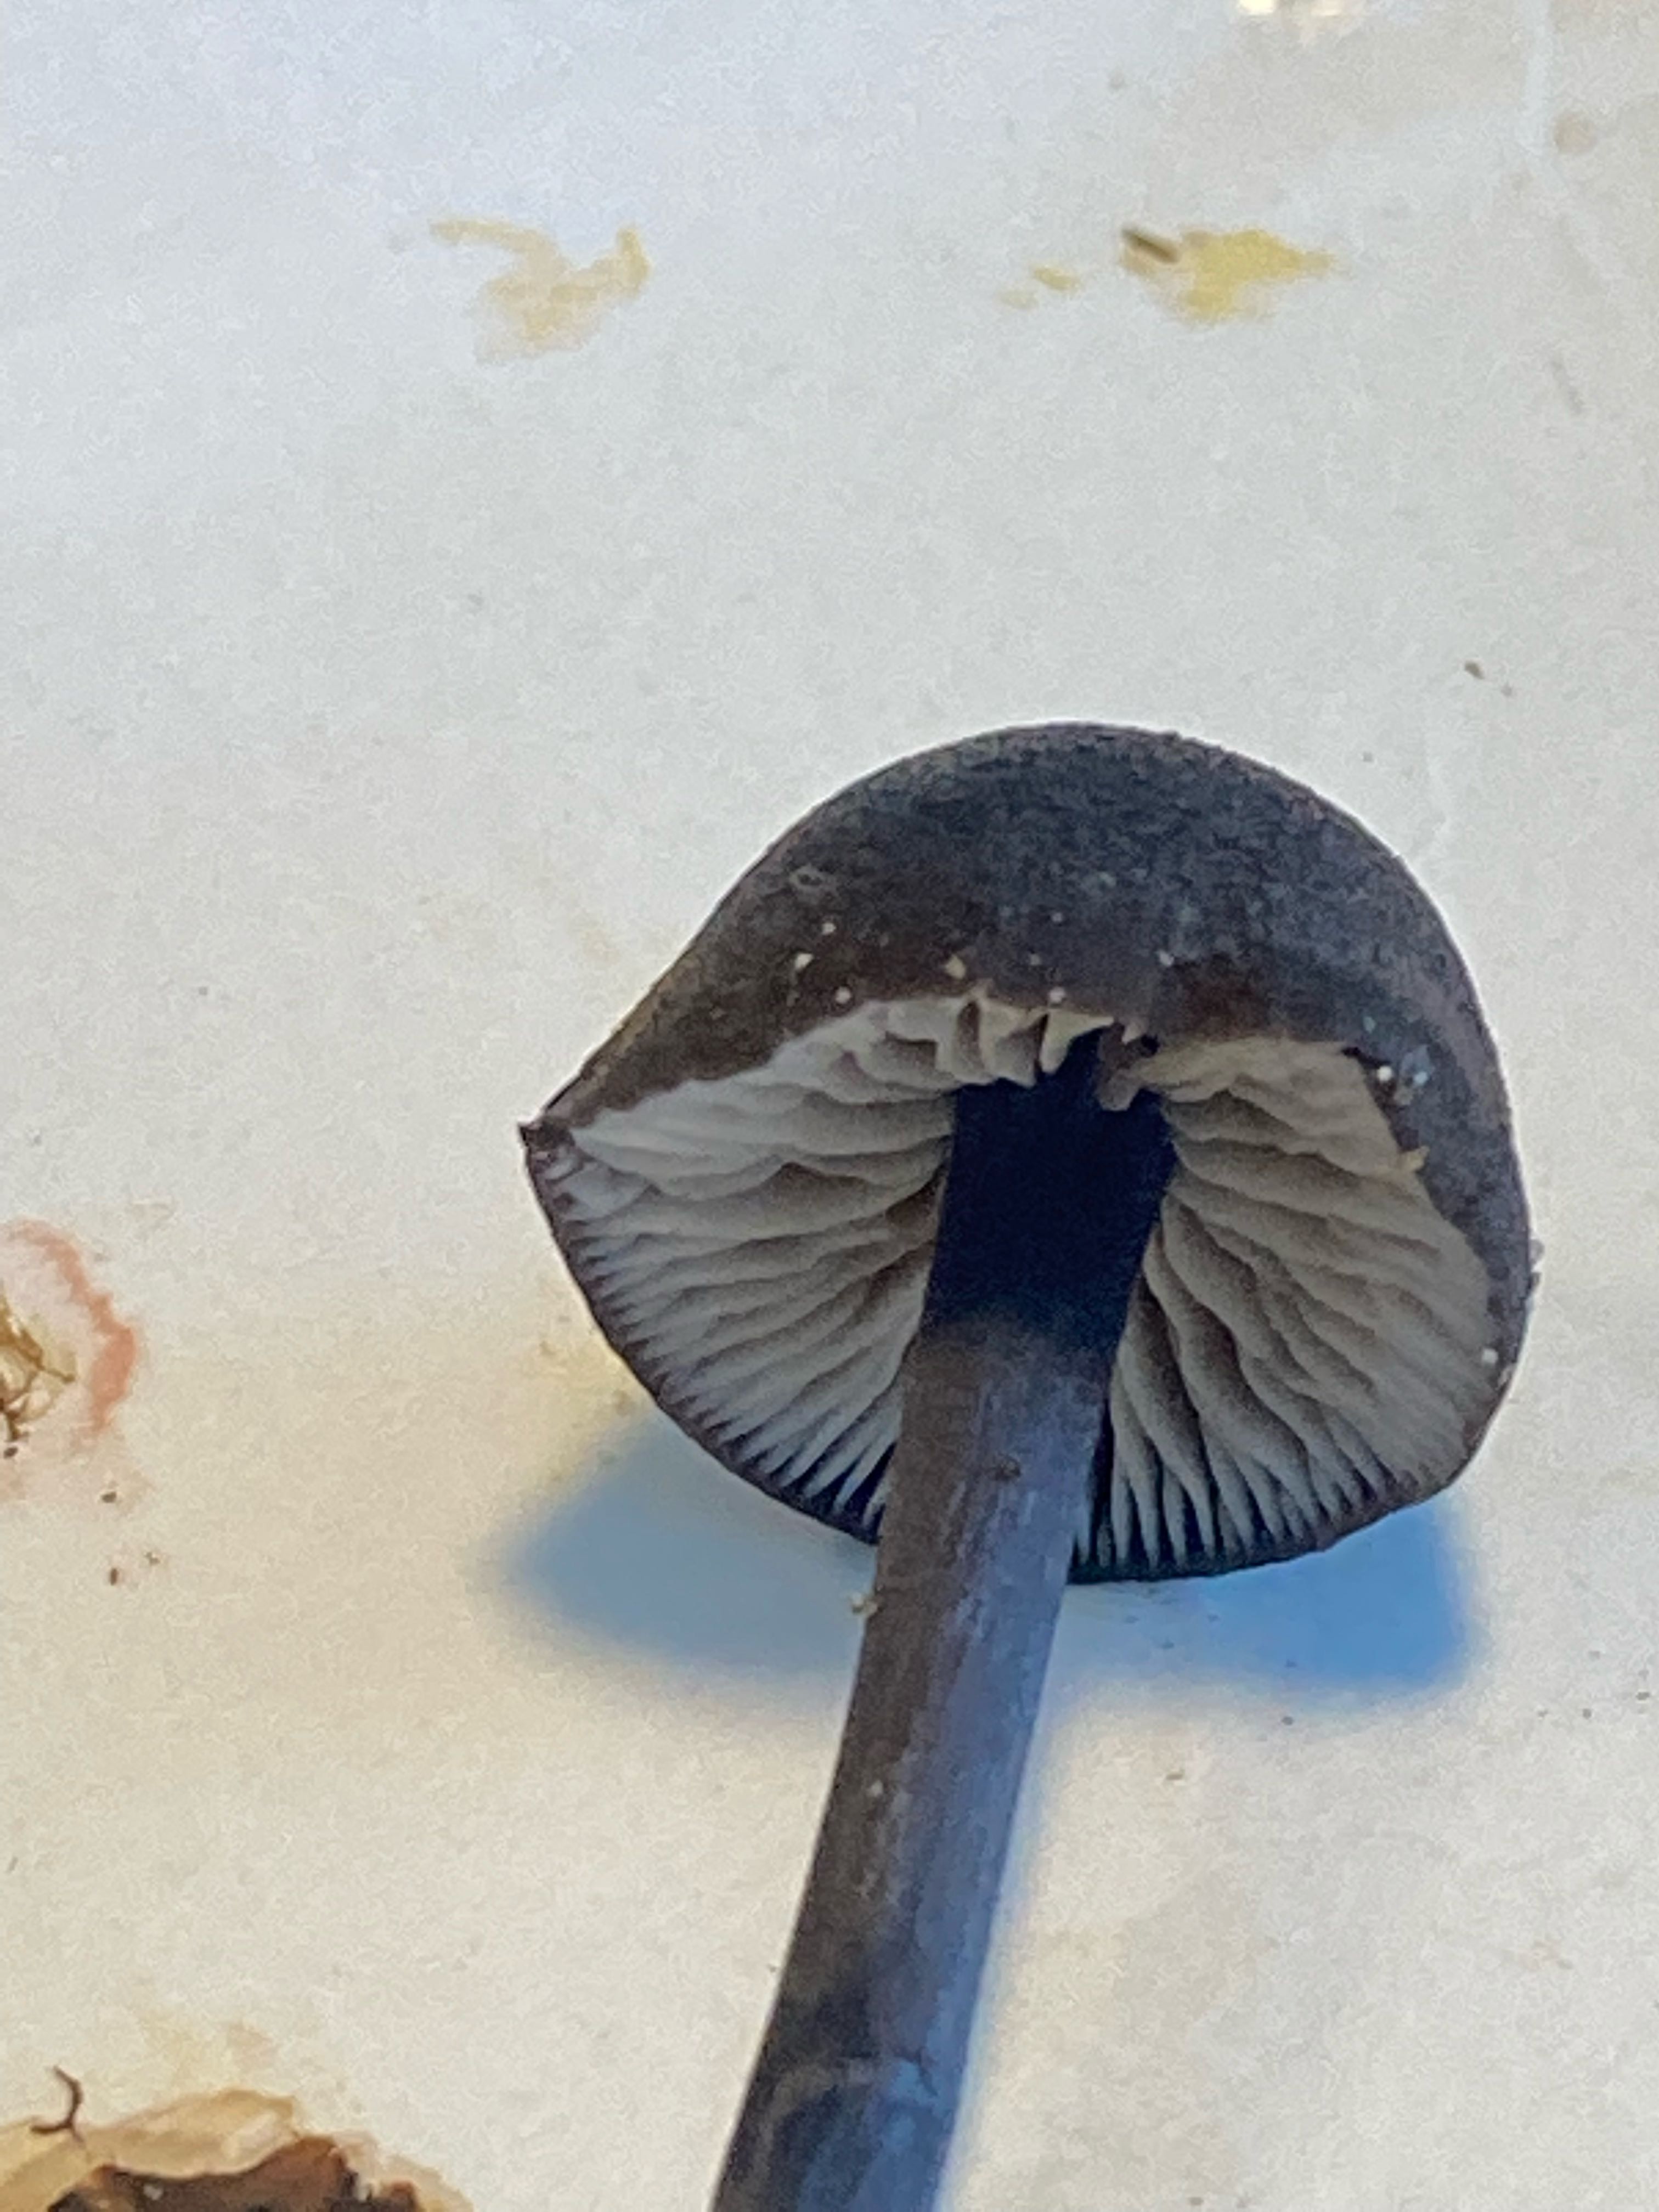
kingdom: Fungi
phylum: Basidiomycota
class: Agaricomycetes
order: Agaricales
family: Entolomataceae
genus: Entoloma
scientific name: Entoloma
